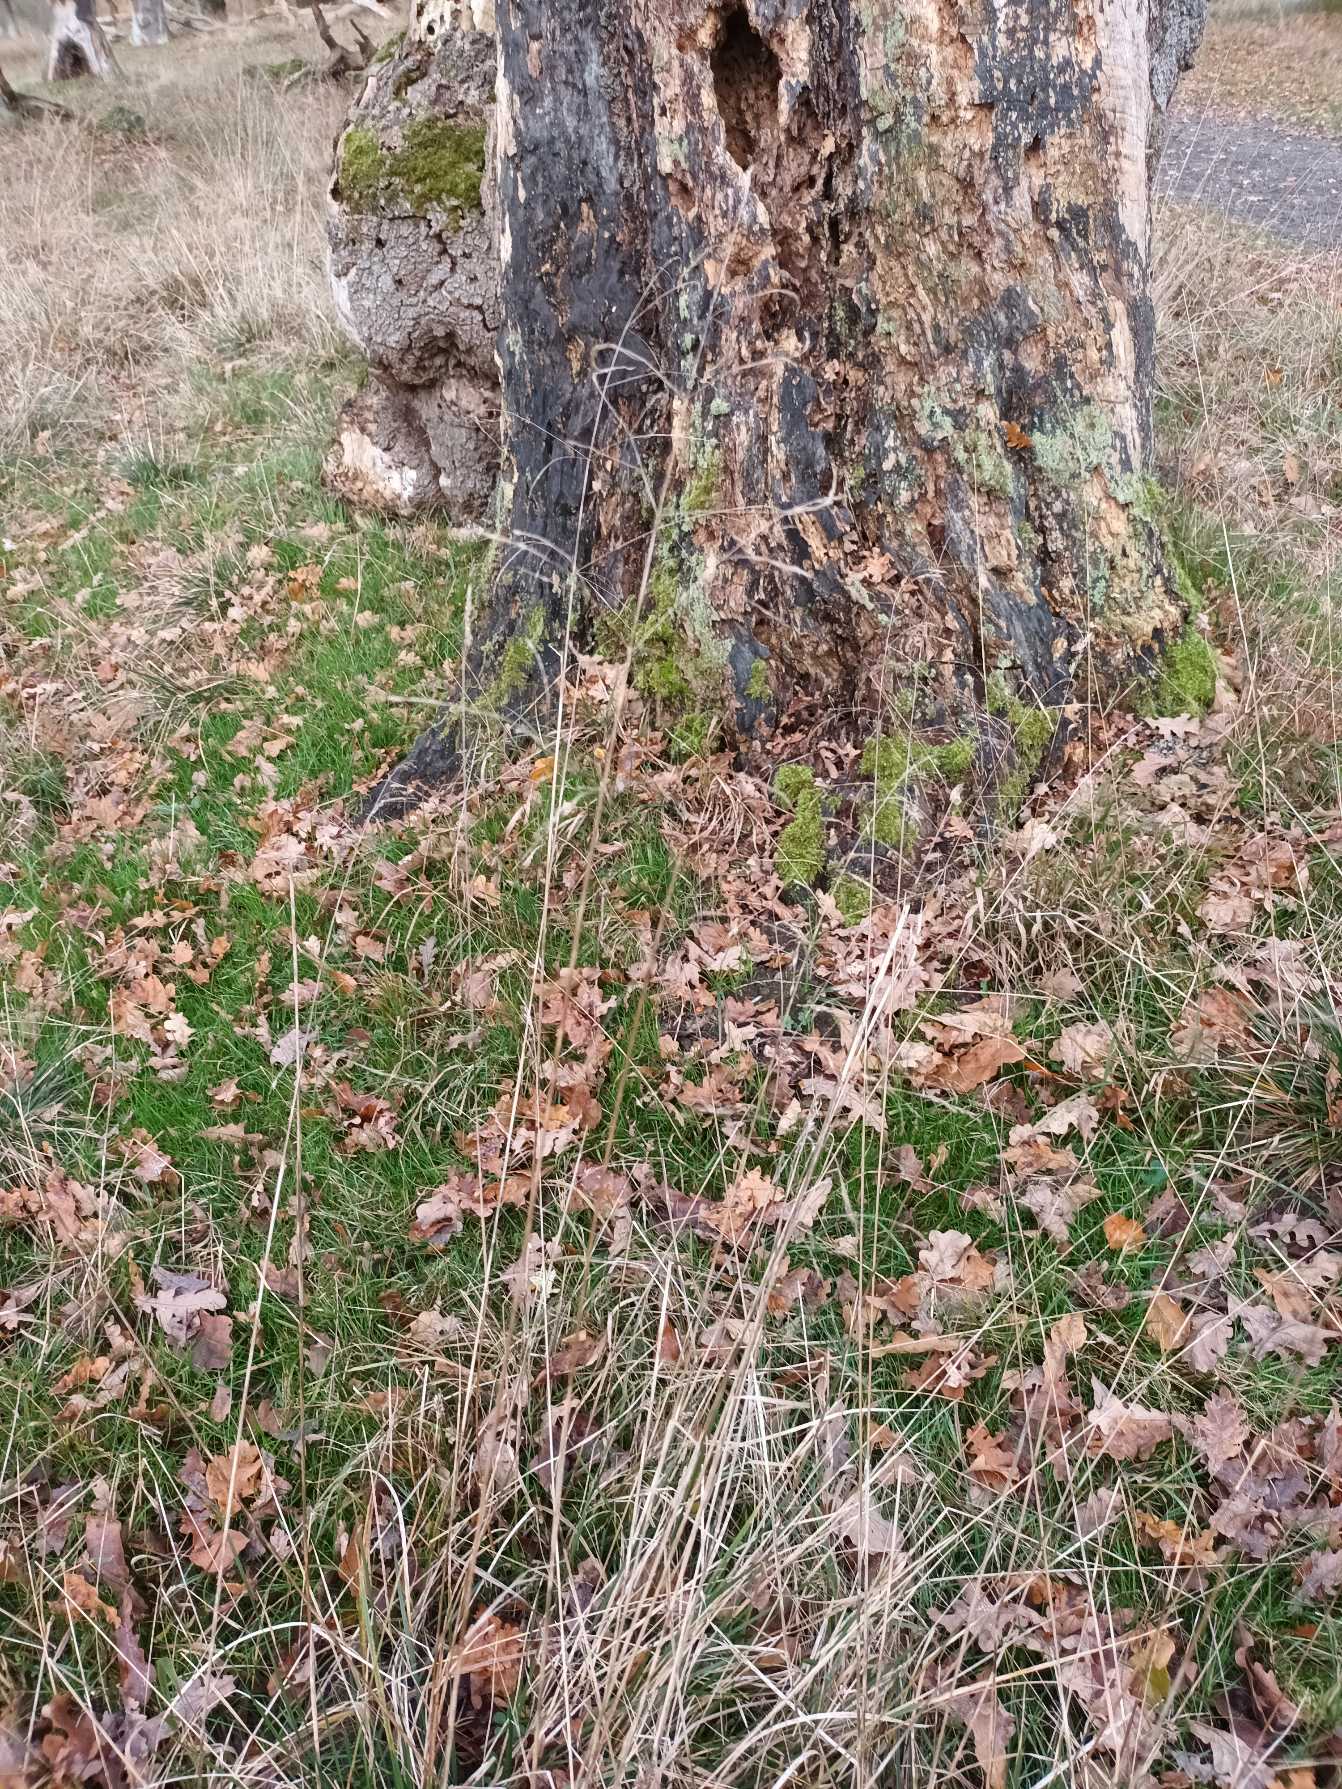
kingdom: Plantae
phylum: Tracheophyta
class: Liliopsida
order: Poales
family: Poaceae
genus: Deschampsia
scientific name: Deschampsia cespitosa
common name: Mose-bunke
